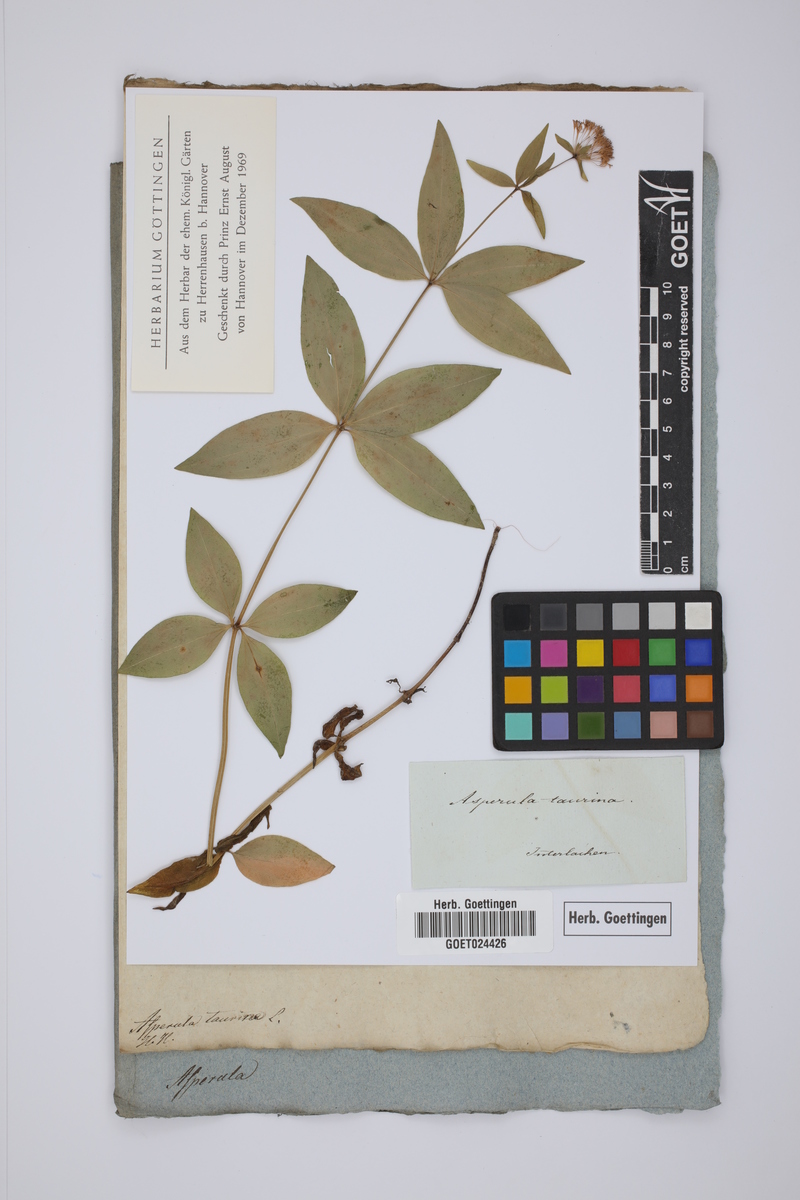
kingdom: Plantae
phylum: Tracheophyta
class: Magnoliopsida
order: Gentianales
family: Rubiaceae
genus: Asperula
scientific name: Asperula taurina
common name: Pink woodruff
